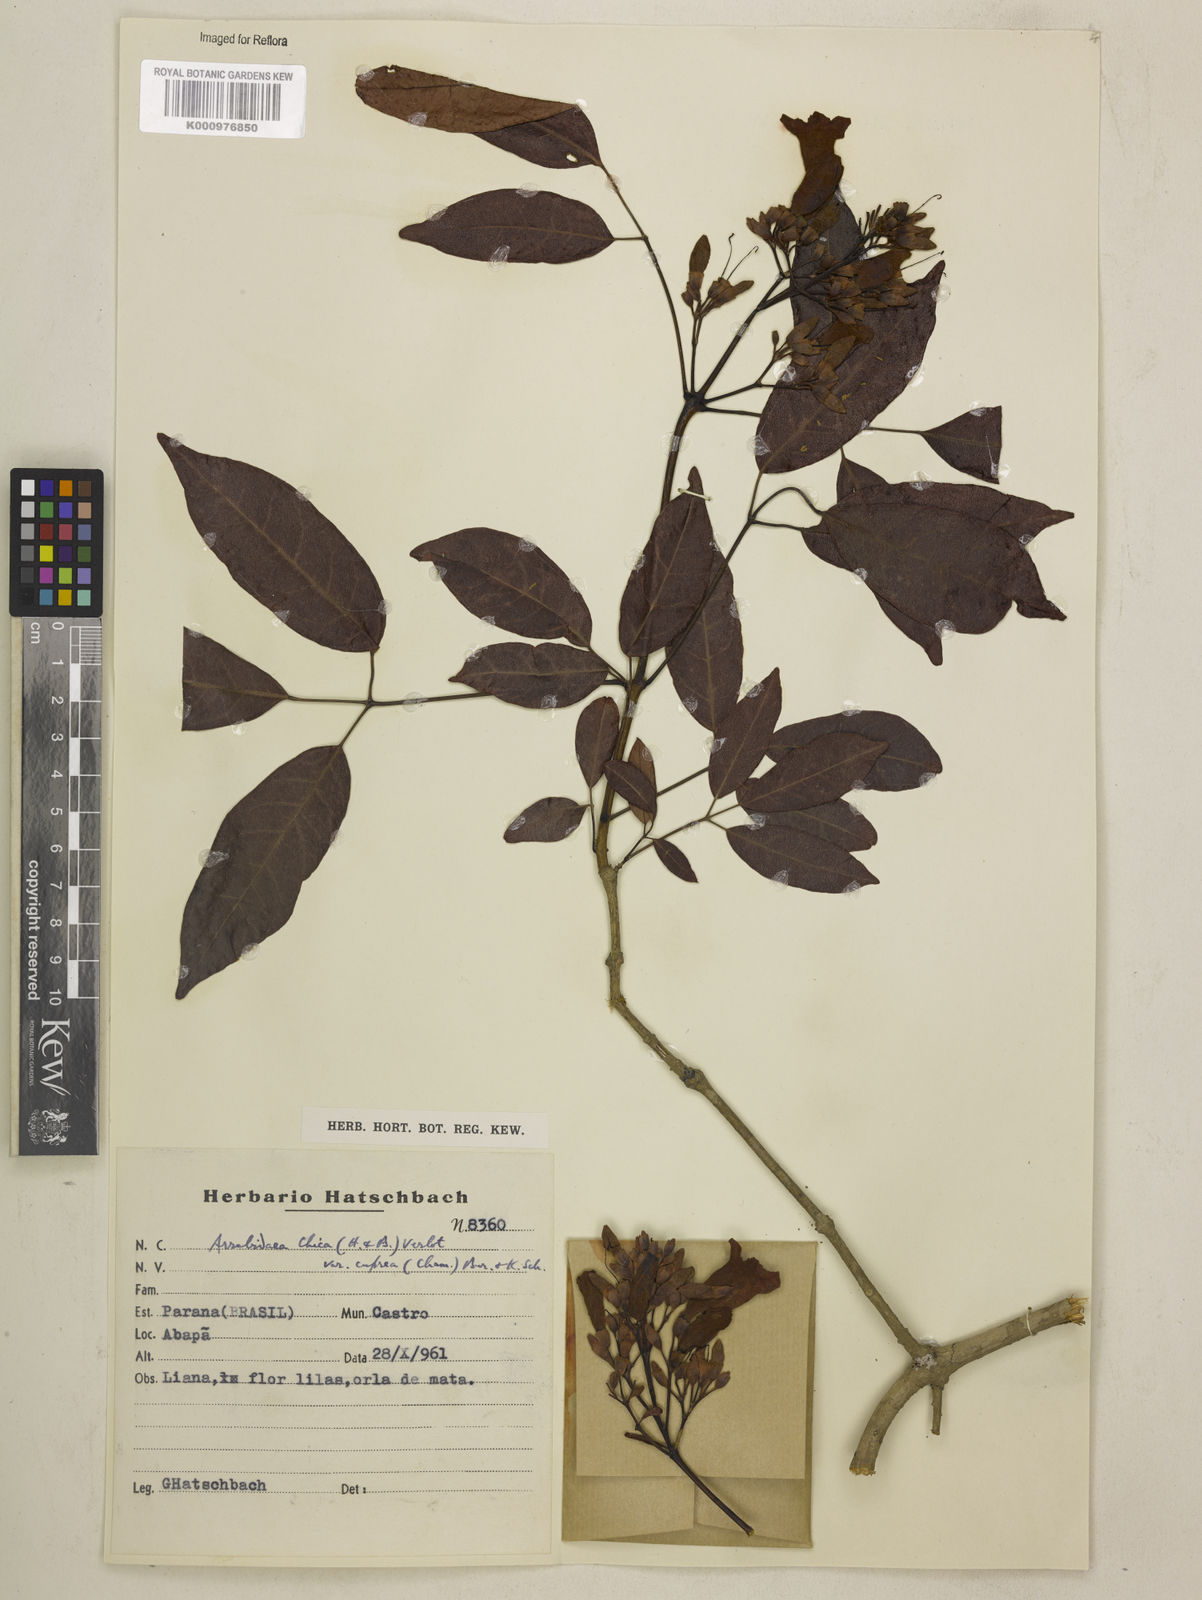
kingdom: Plantae
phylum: Tracheophyta
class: Magnoliopsida
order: Lamiales
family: Bignoniaceae
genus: Fridericia
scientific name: Fridericia chica
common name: Cricketvine
